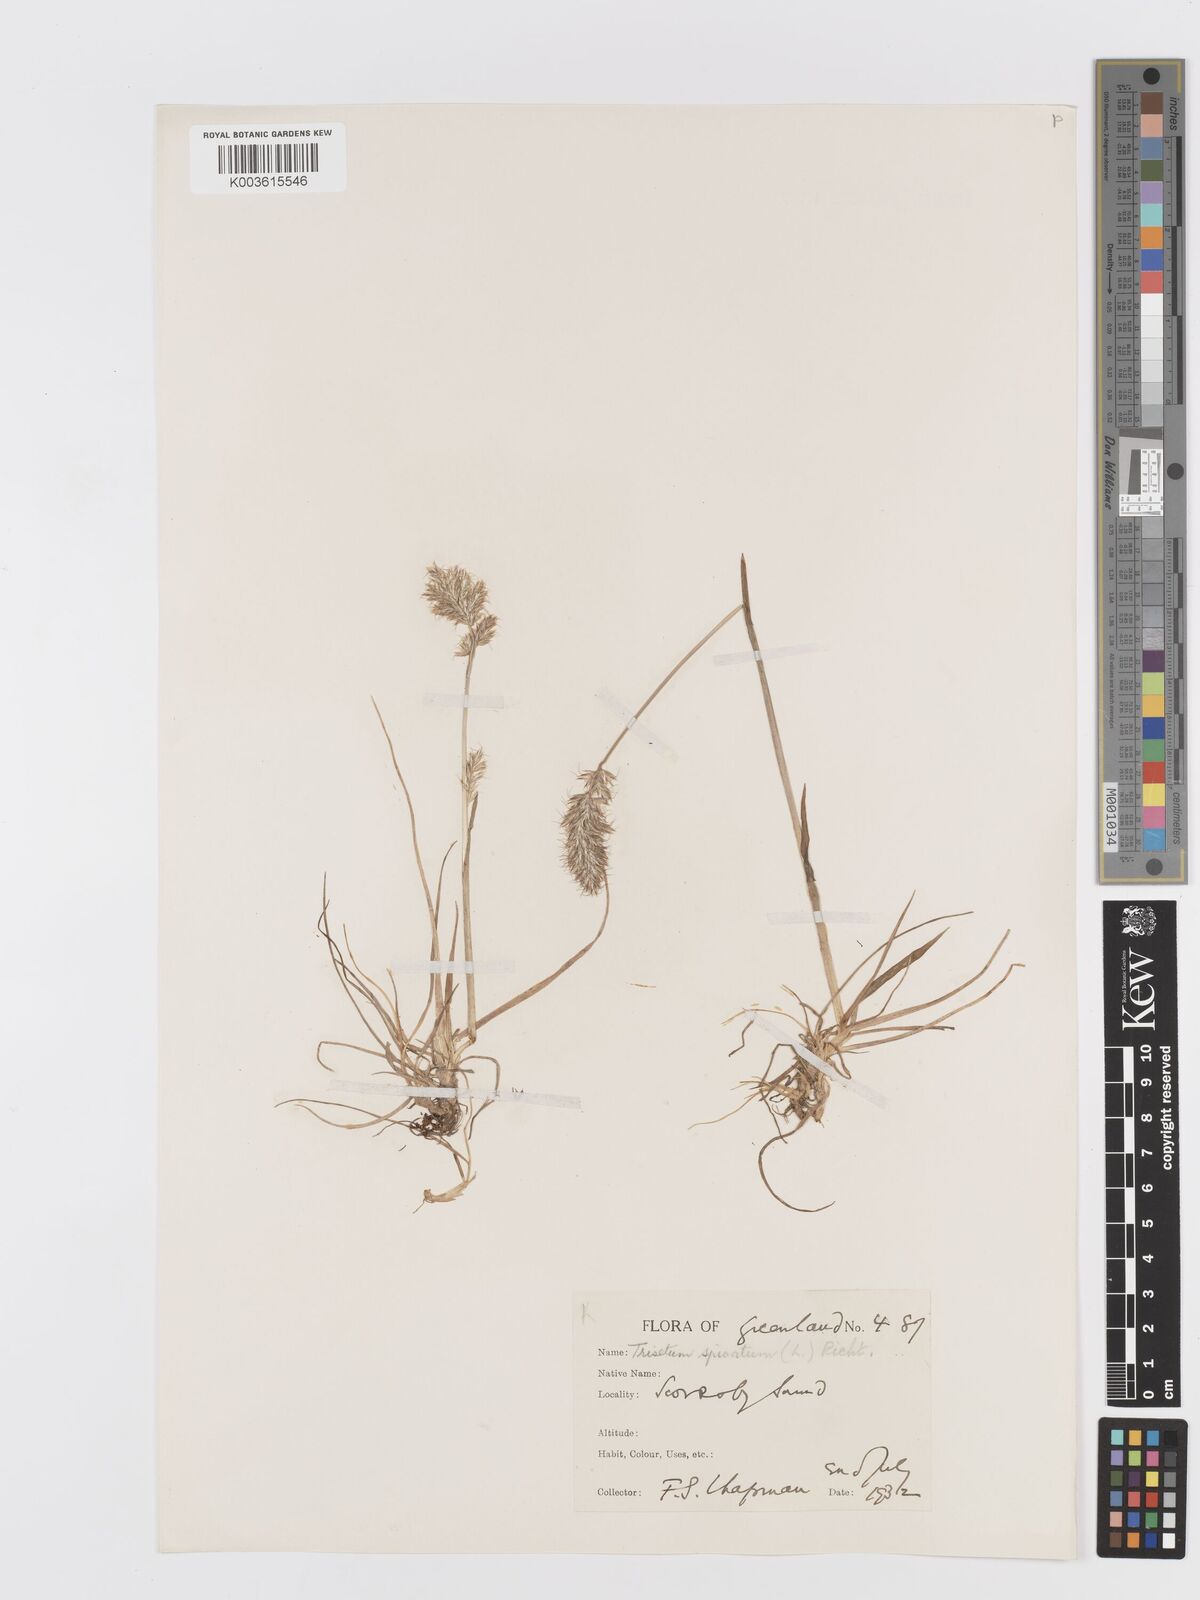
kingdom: Plantae
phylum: Tracheophyta
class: Liliopsida
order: Poales
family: Poaceae
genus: Koeleria
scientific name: Koeleria spicata
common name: Mountain trisetum
